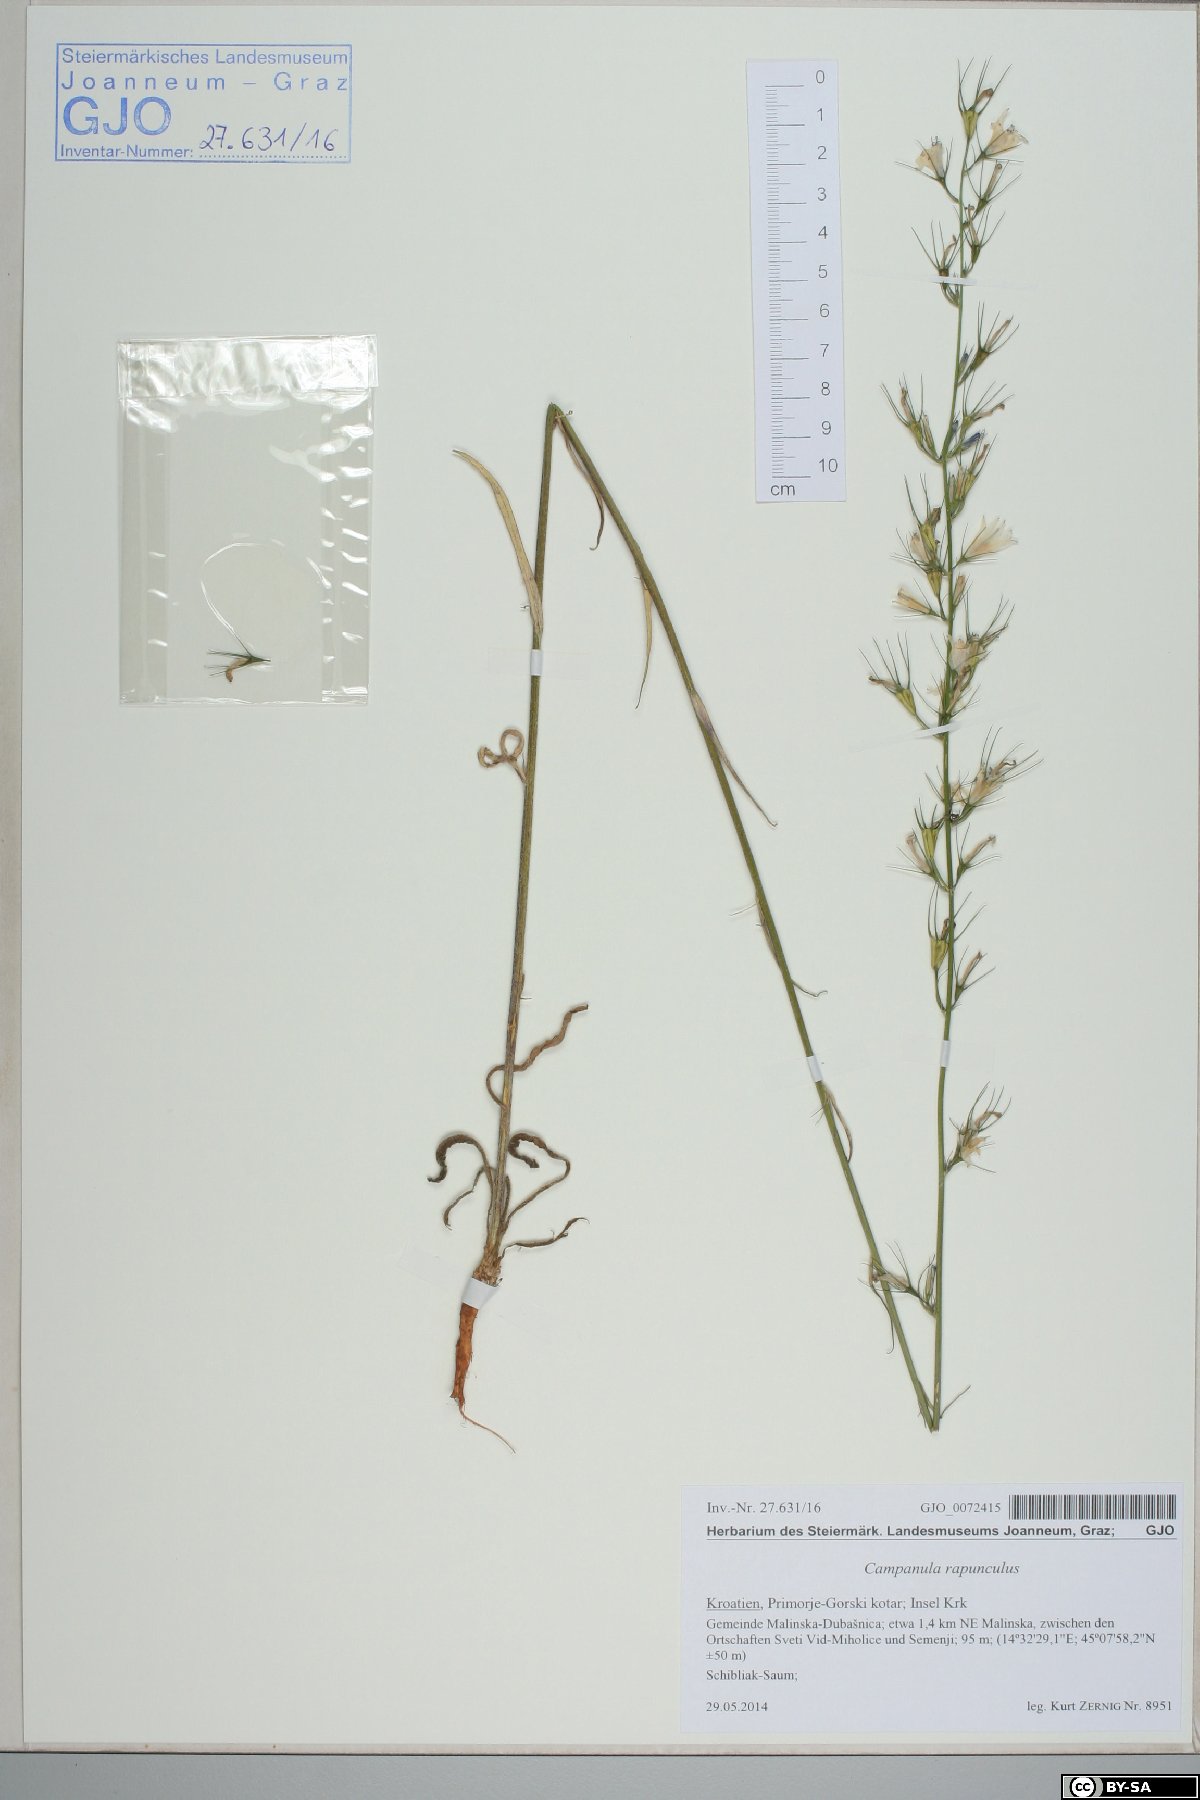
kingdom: Plantae
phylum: Tracheophyta
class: Magnoliopsida
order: Asterales
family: Campanulaceae
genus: Campanula
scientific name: Campanula rapunculus
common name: Rampion bellflower
